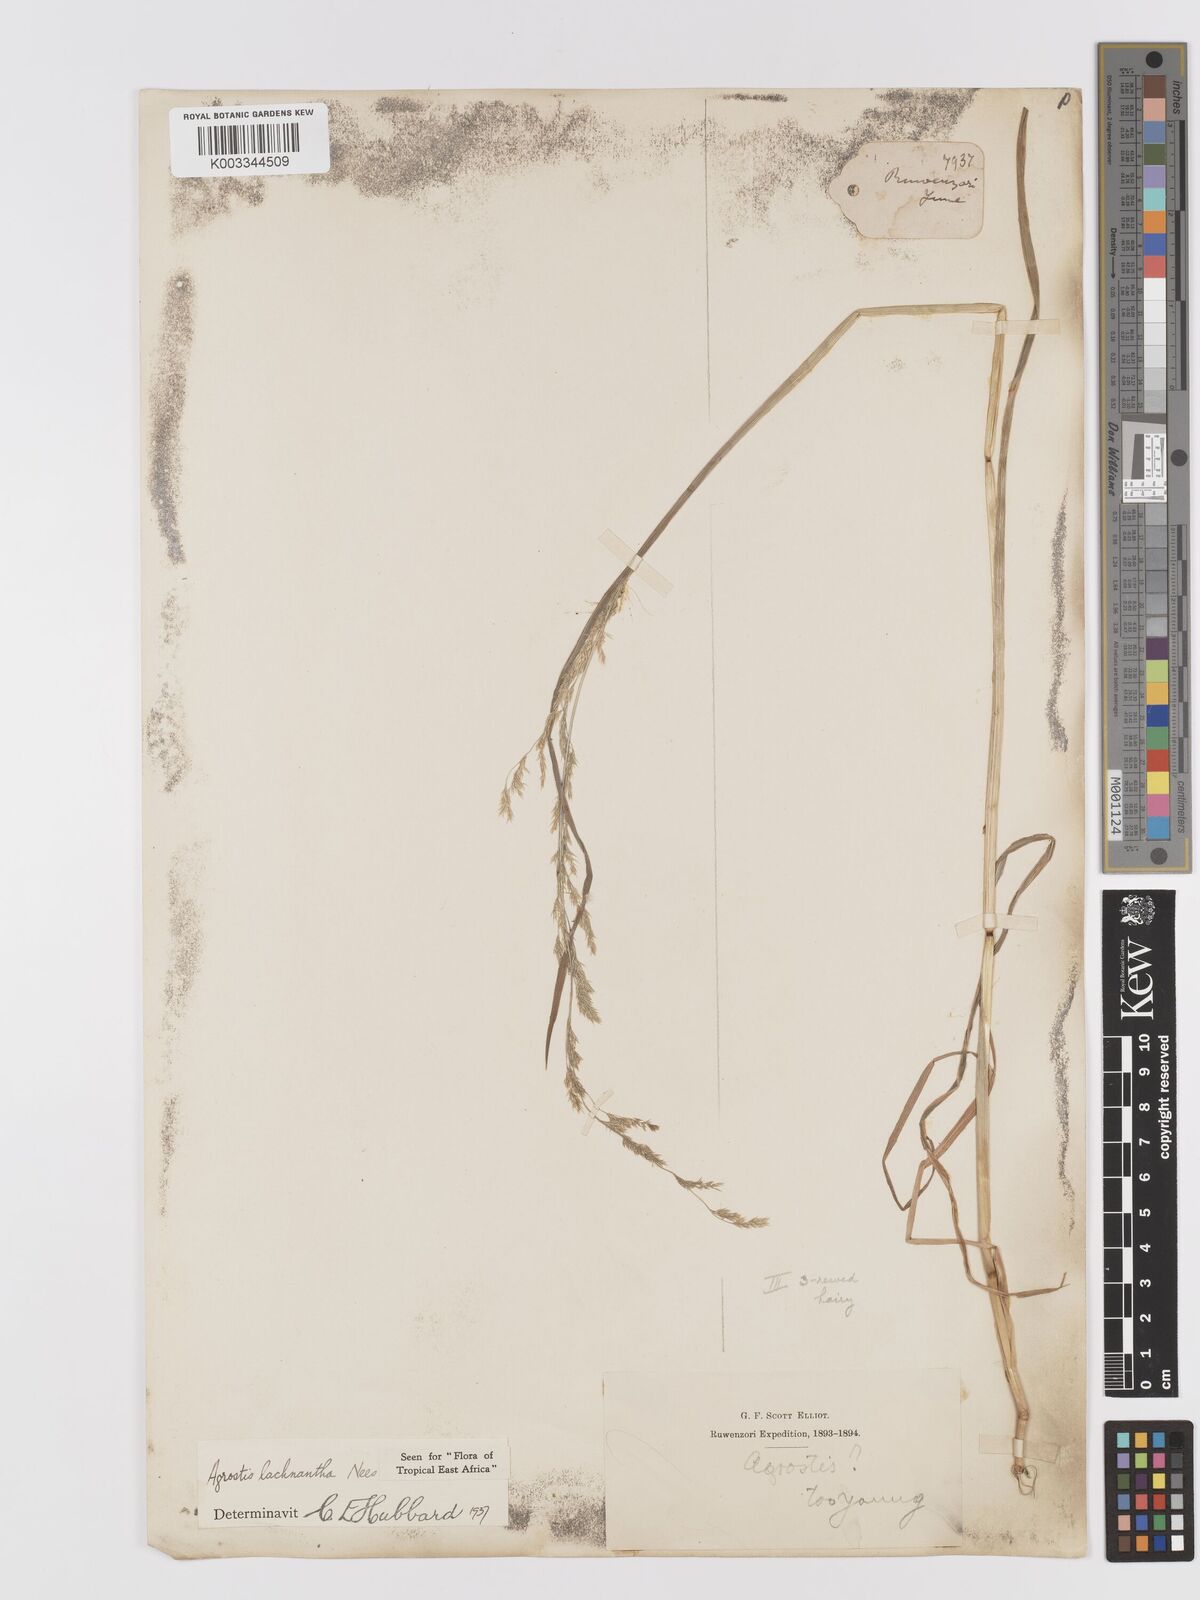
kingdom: Plantae
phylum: Tracheophyta
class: Liliopsida
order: Poales
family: Poaceae
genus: Agrostis
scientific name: Agrostis sclerophylla
